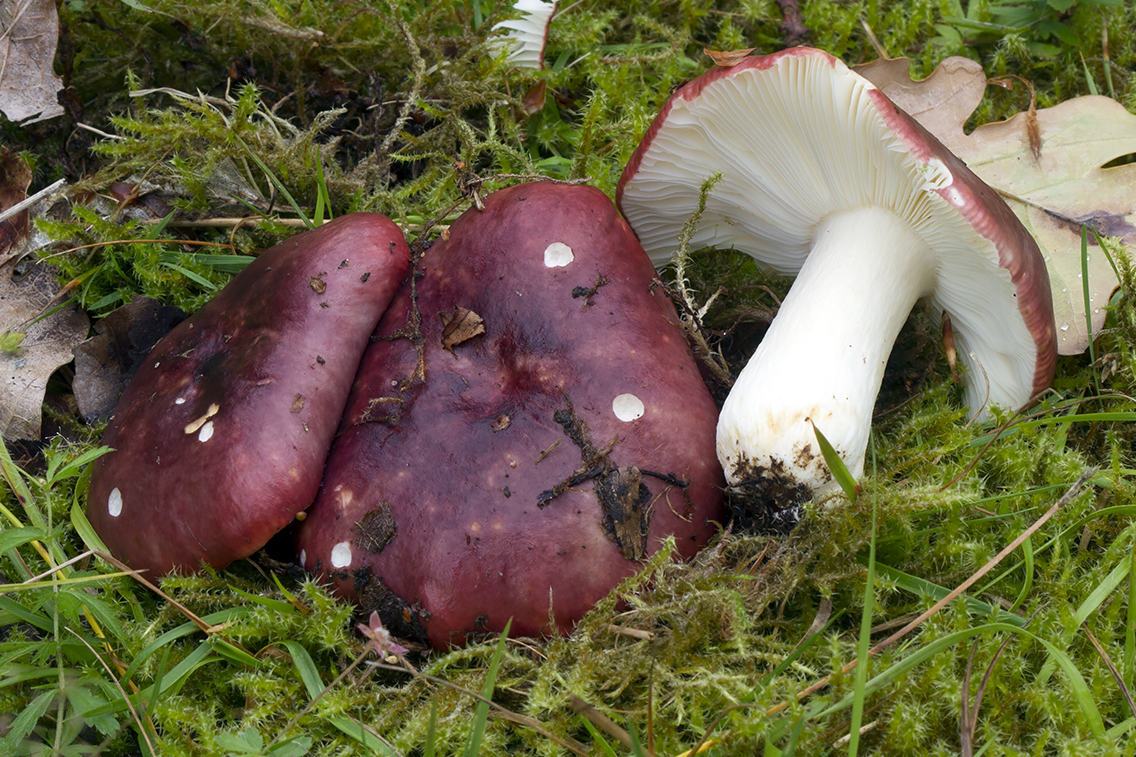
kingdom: Fungi
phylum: Basidiomycota
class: Agaricomycetes
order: Russulales
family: Russulaceae
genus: Russula
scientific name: Russula atropurpurea
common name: purpurbroget skørhat
